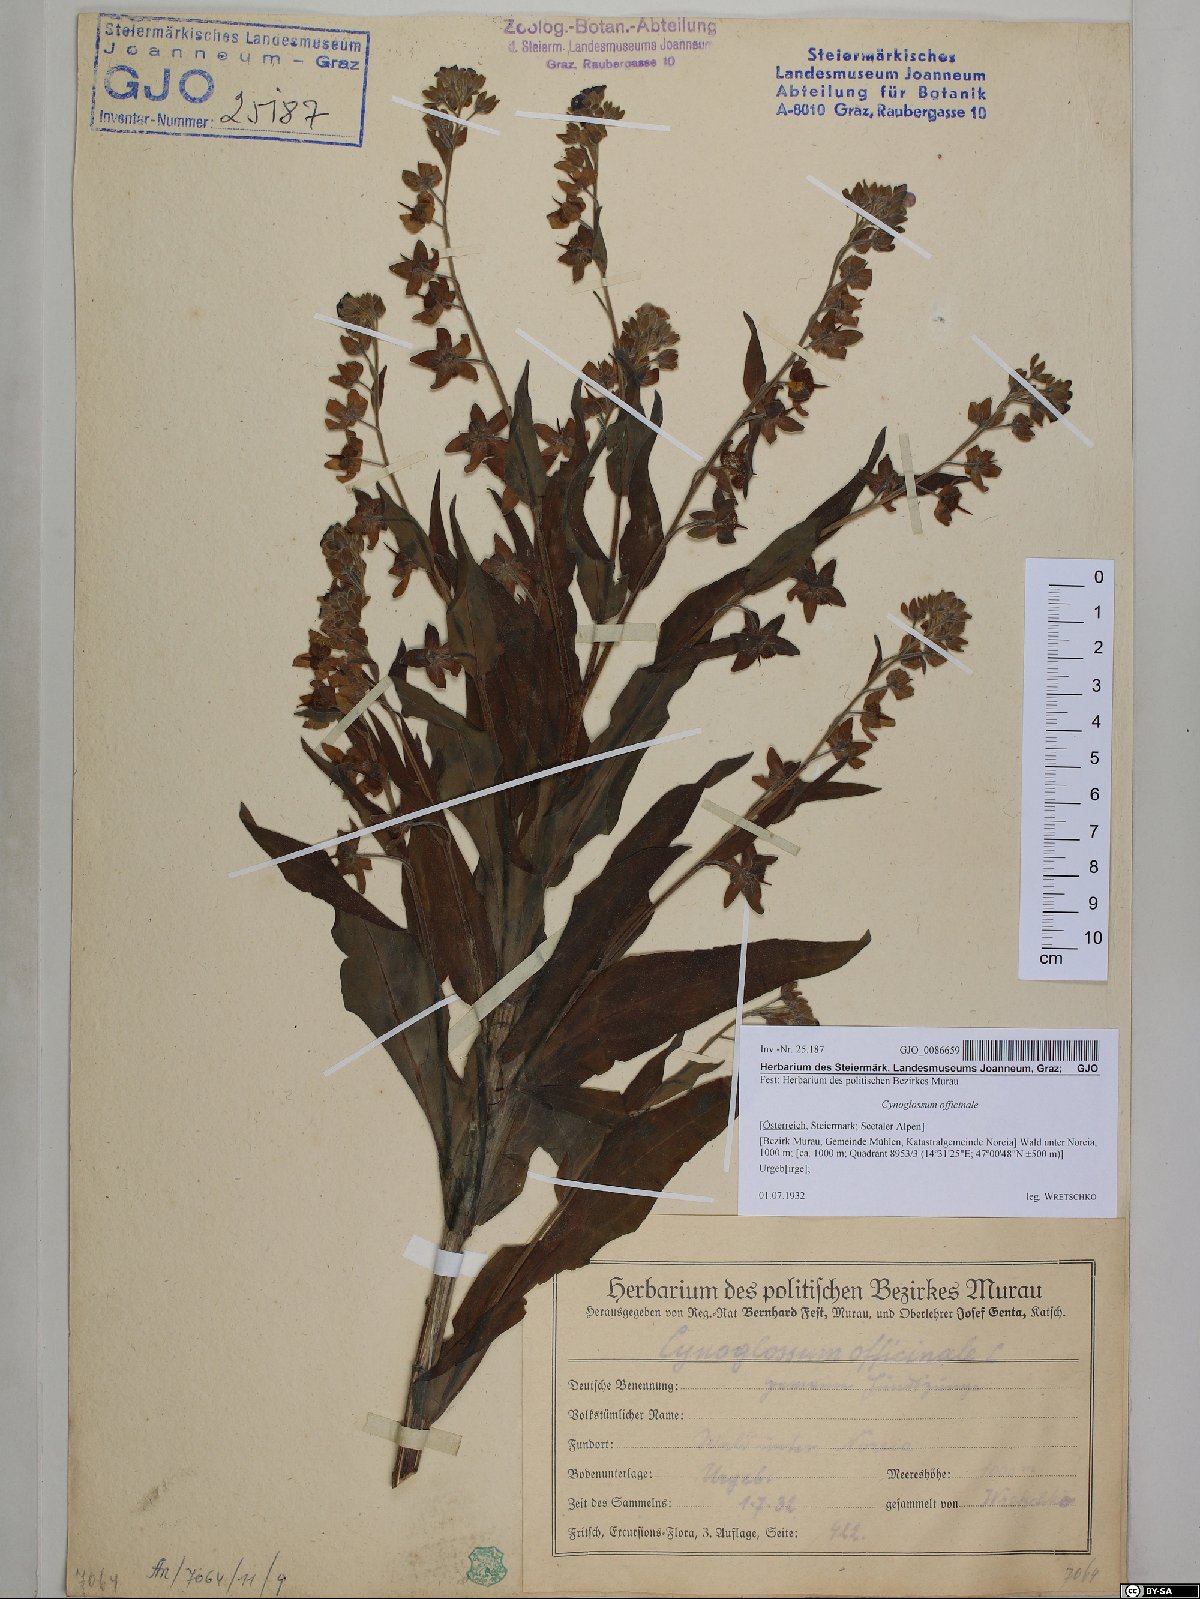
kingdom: Plantae
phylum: Tracheophyta
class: Magnoliopsida
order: Boraginales
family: Boraginaceae
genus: Cynoglossum
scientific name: Cynoglossum officinale
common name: Hound's-tongue
